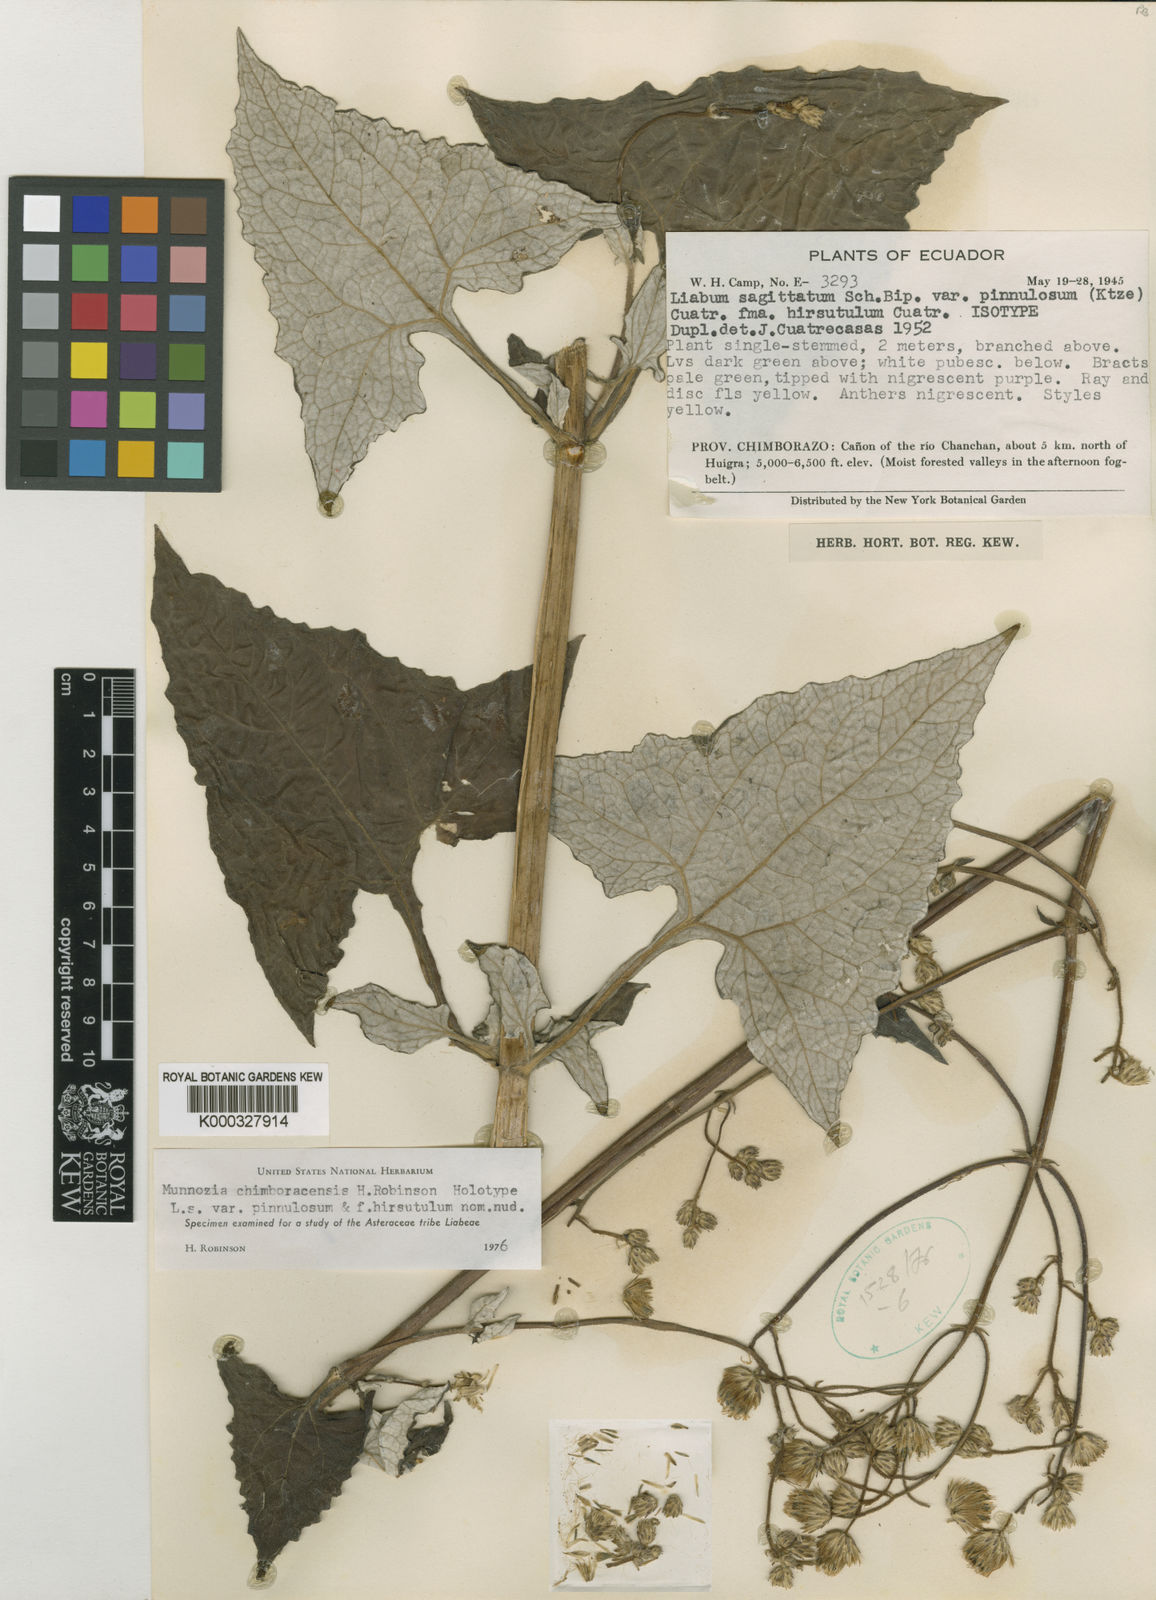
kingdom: Plantae
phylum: Tracheophyta
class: Magnoliopsida
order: Asterales
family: Asteraceae
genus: Munnozia
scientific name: Munnozia chimboracensis
